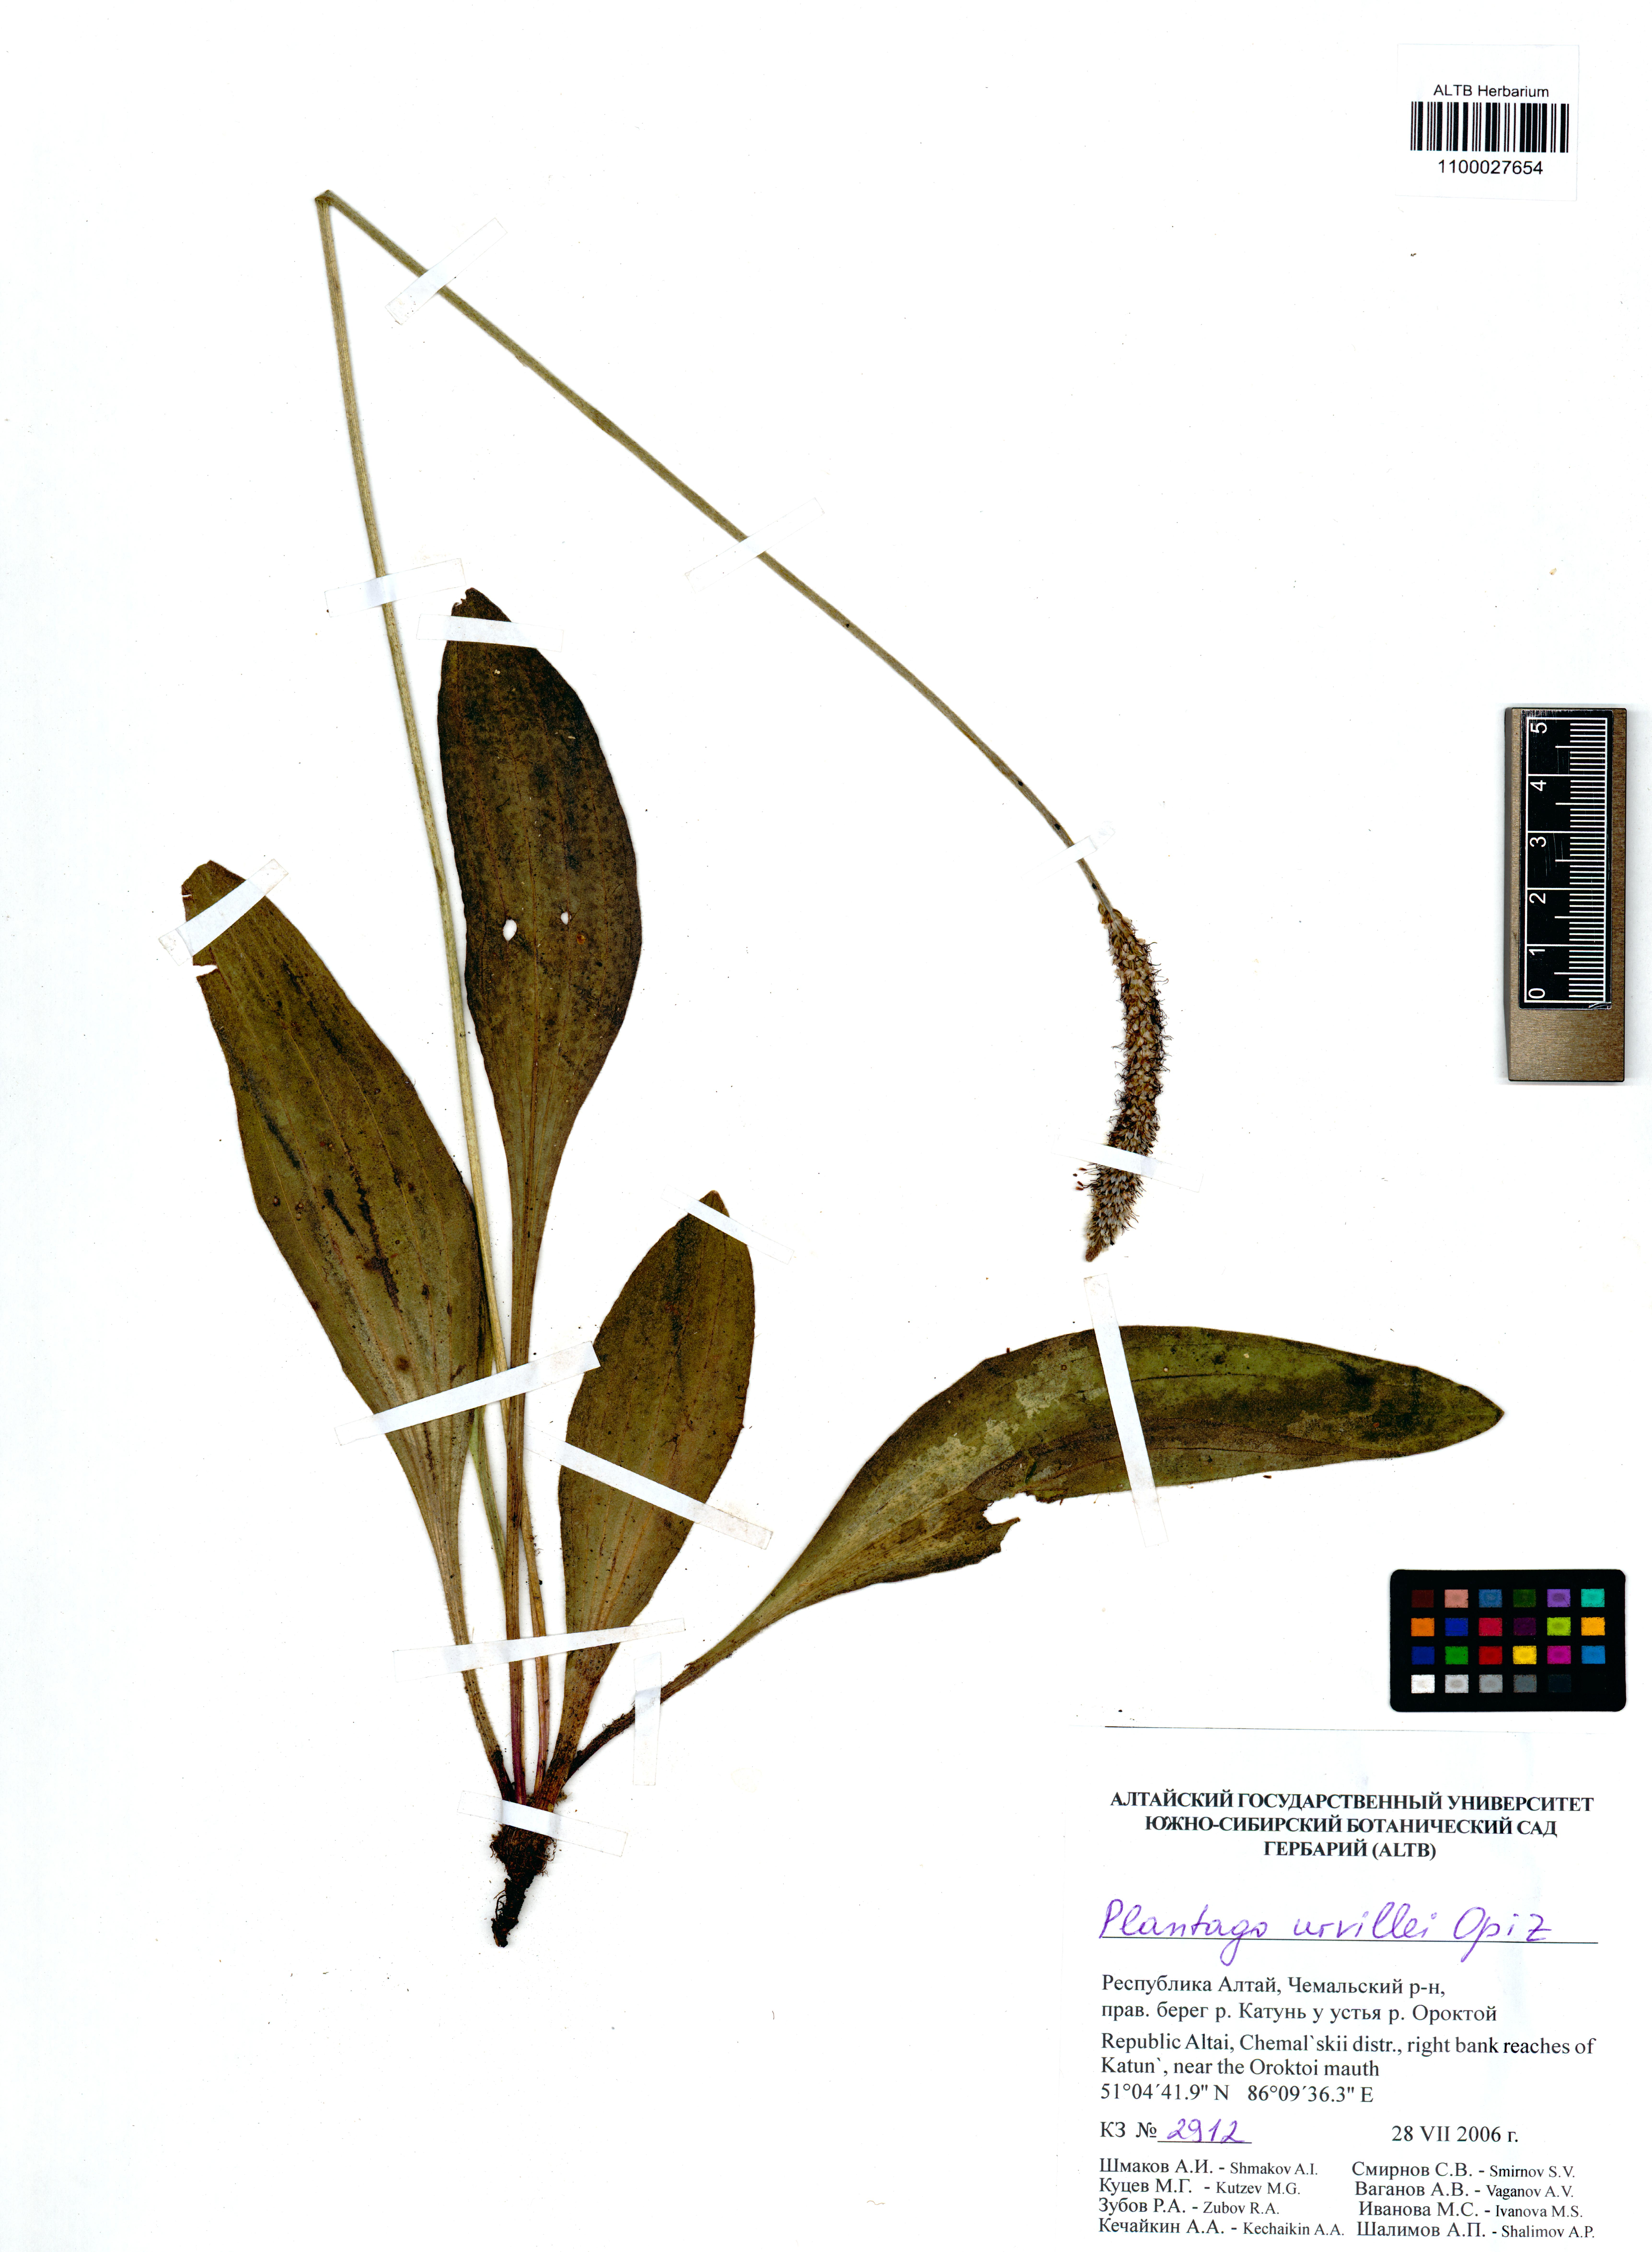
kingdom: Plantae
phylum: Tracheophyta
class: Magnoliopsida
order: Lamiales
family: Plantaginaceae
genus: Plantago
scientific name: Plantago urvillei
